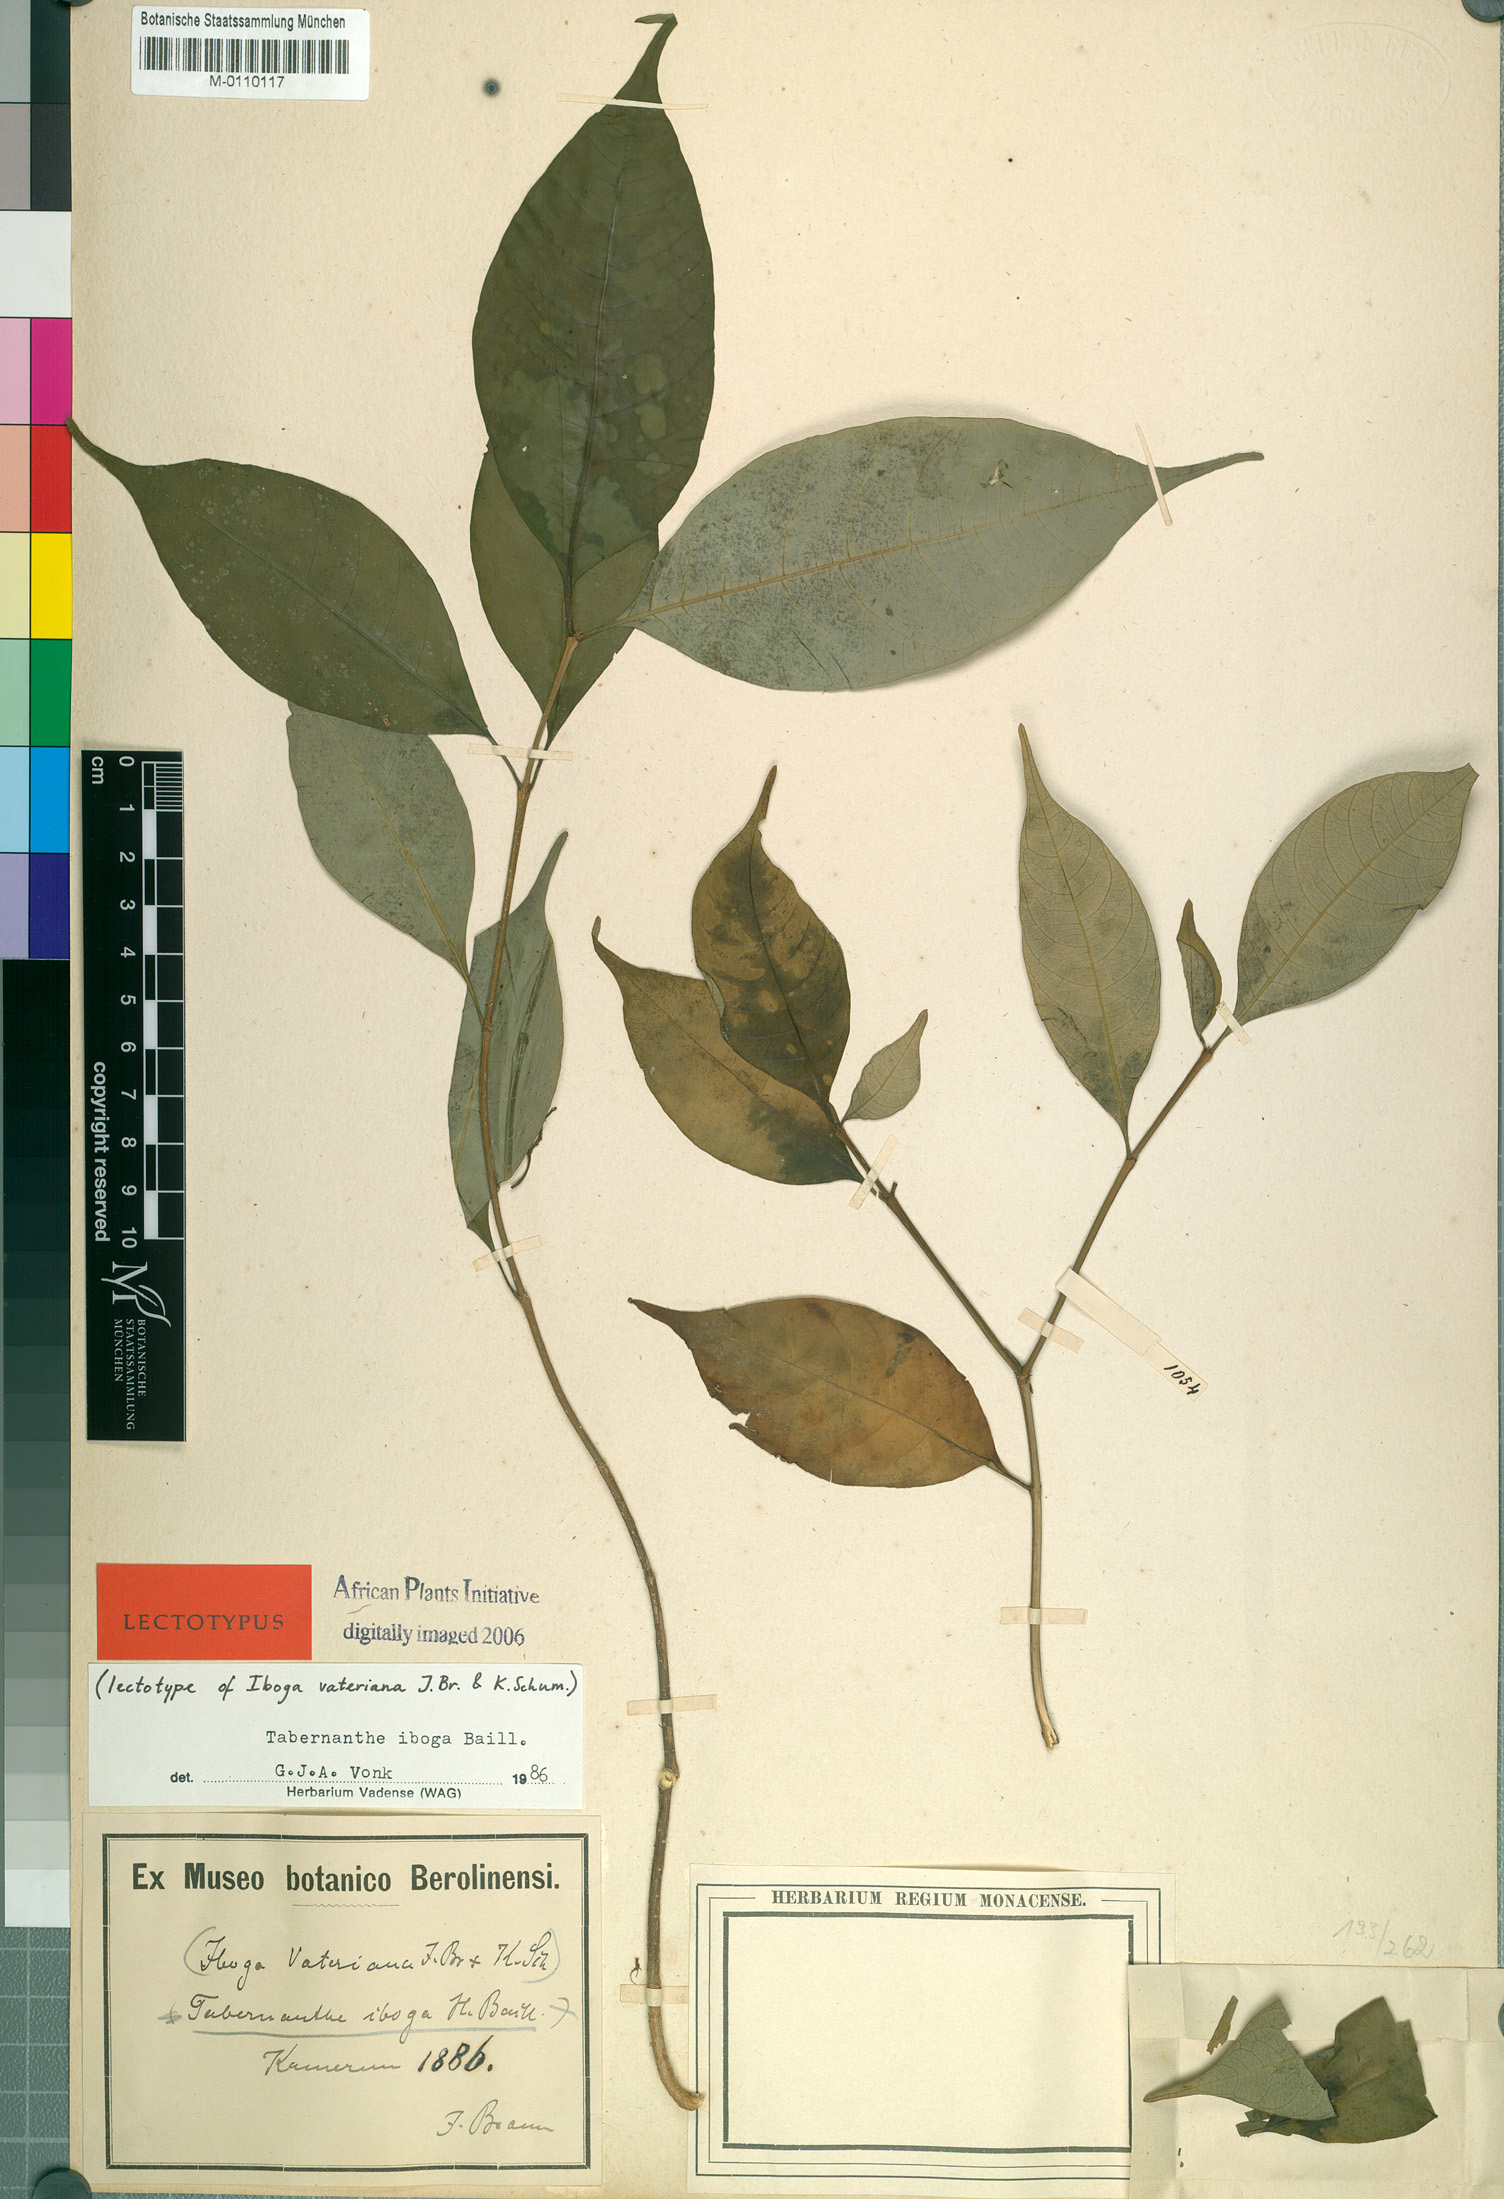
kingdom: Plantae
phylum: Tracheophyta
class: Magnoliopsida
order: Gentianales
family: Apocynaceae
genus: Tabernanthe
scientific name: Tabernanthe iboga
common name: Bitter-grass
